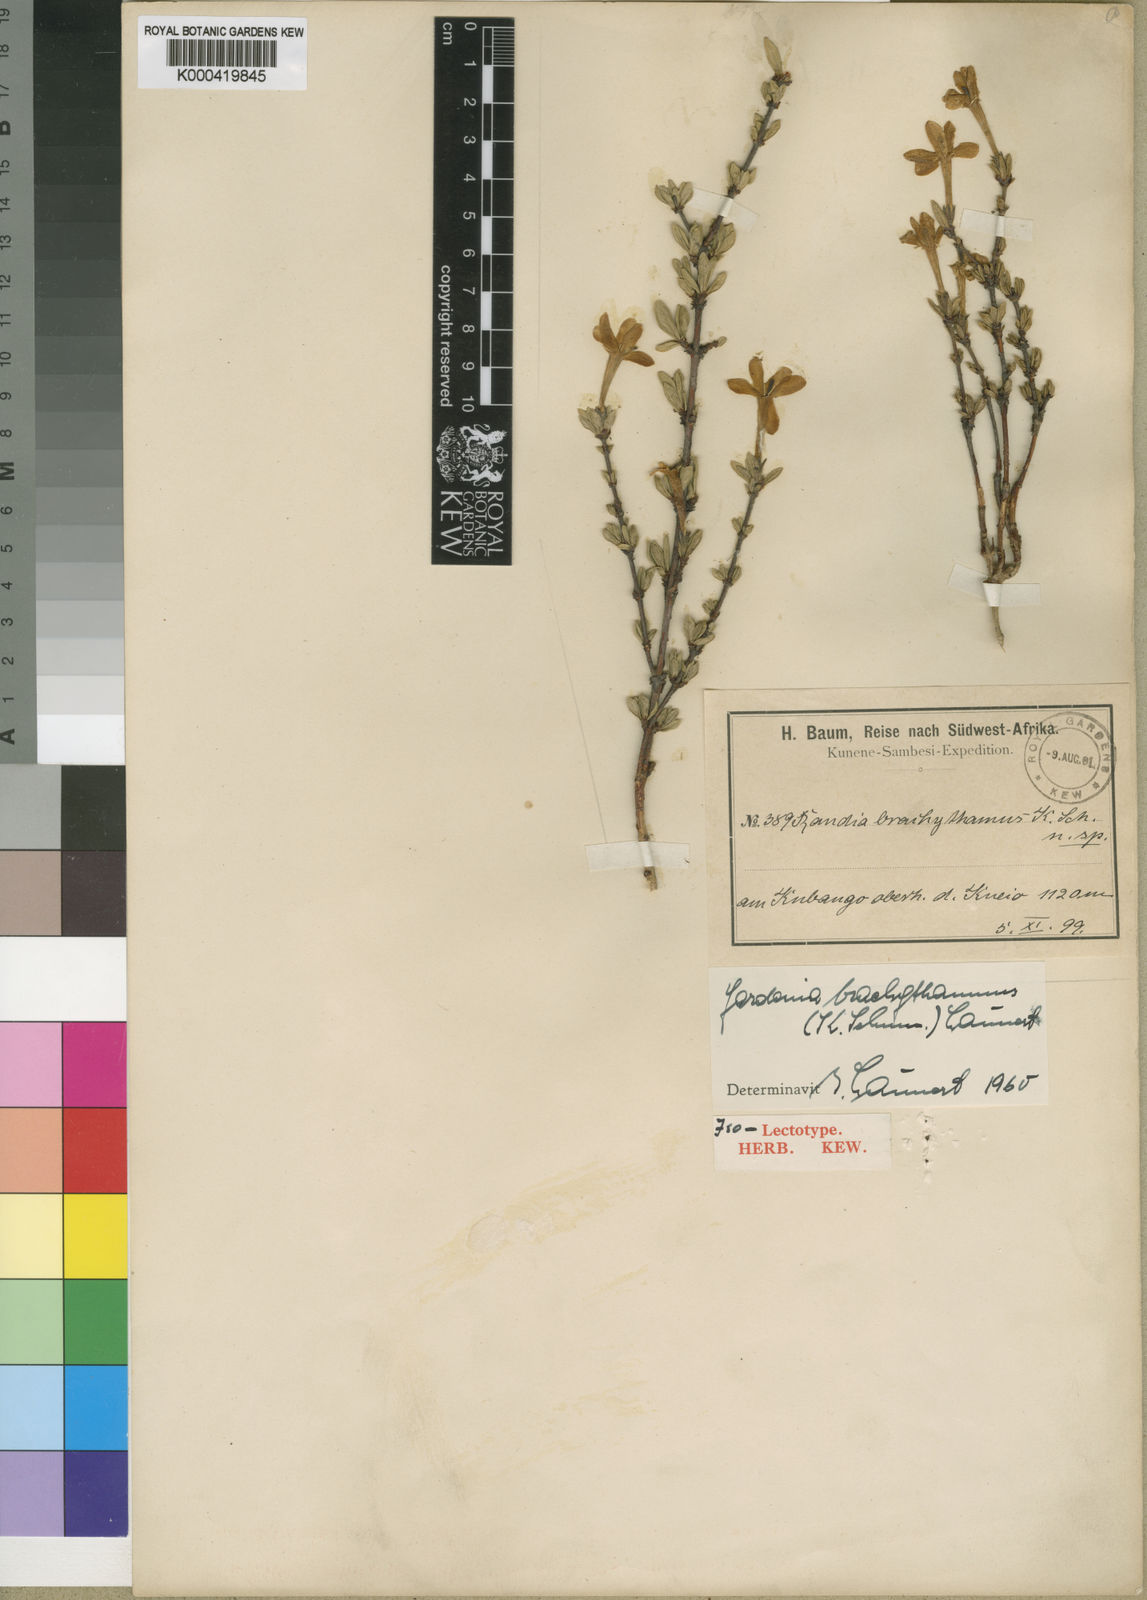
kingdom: Plantae
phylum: Tracheophyta
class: Magnoliopsida
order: Gentianales
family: Rubiaceae
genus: Gardenia
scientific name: Gardenia brachythamnus
